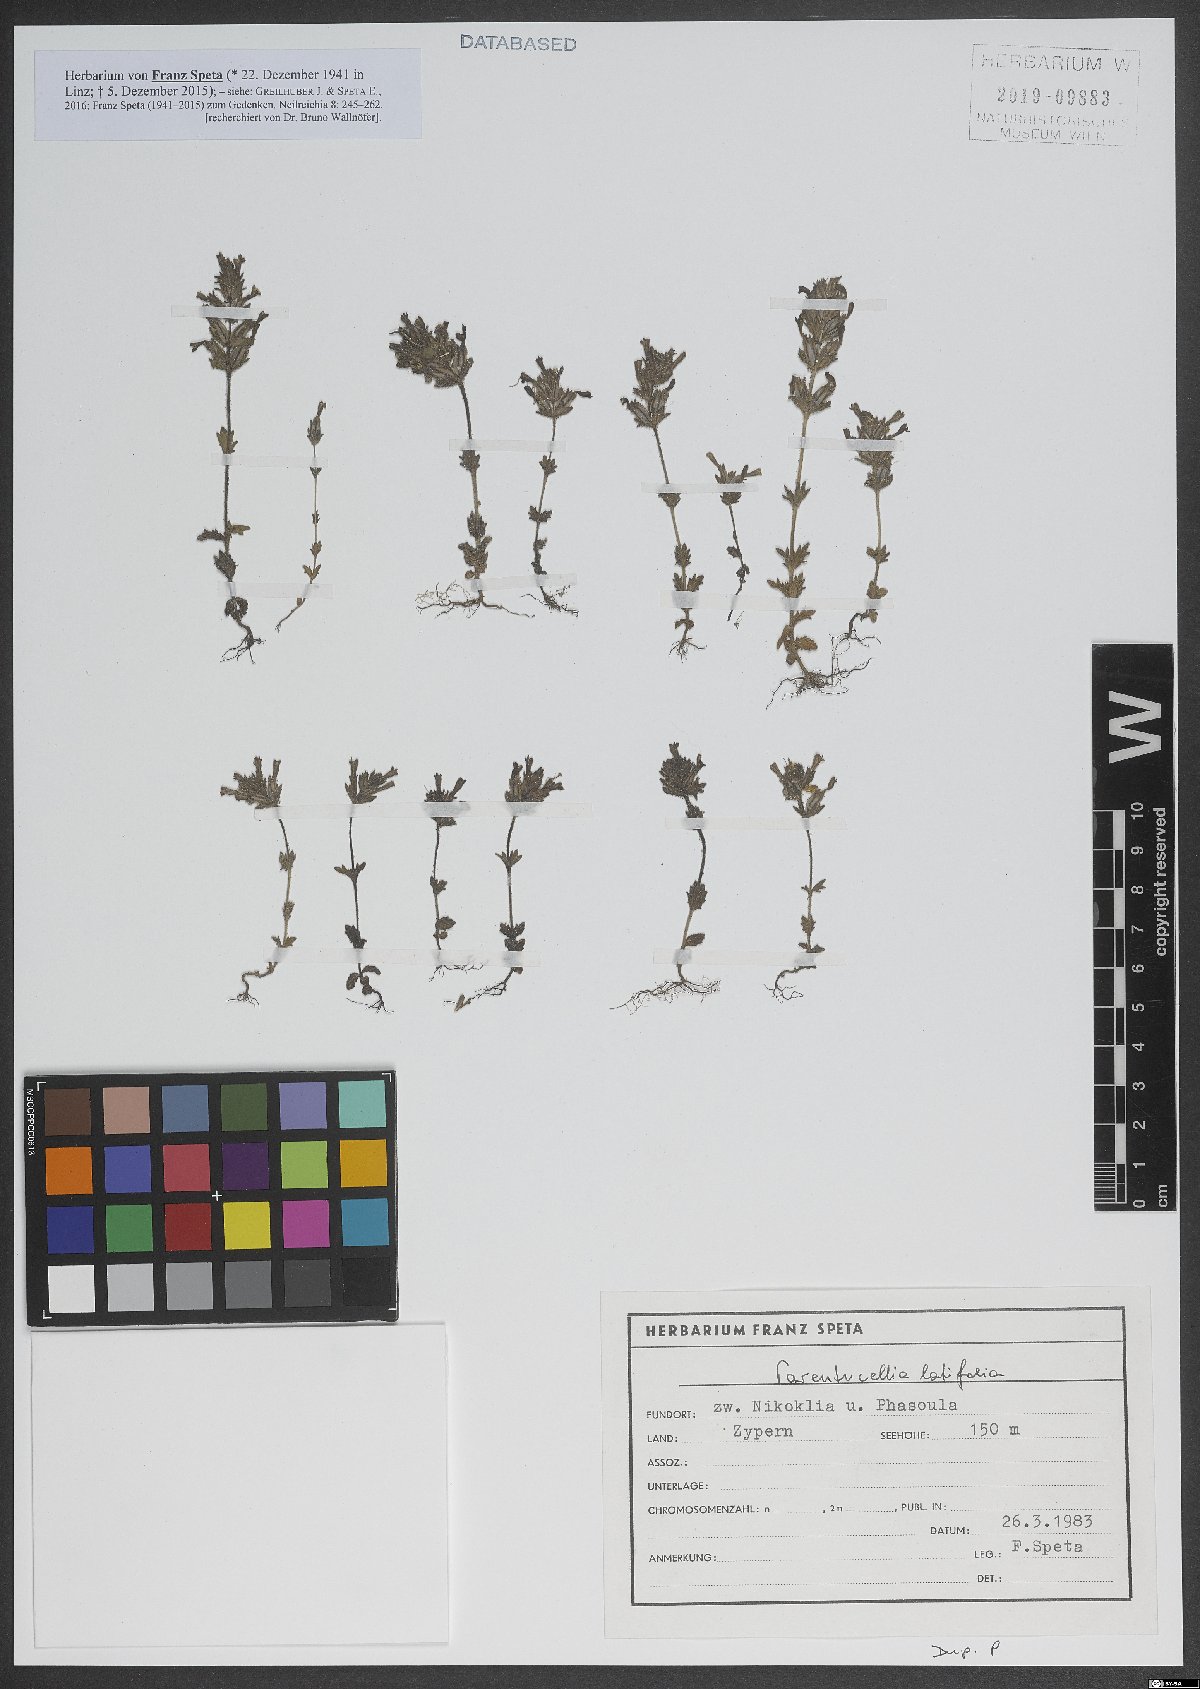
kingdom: Plantae
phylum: Tracheophyta
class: Magnoliopsida
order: Lamiales
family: Orobanchaceae
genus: Parentucellia
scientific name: Parentucellia latifolia
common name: Broadleaf glandweed
